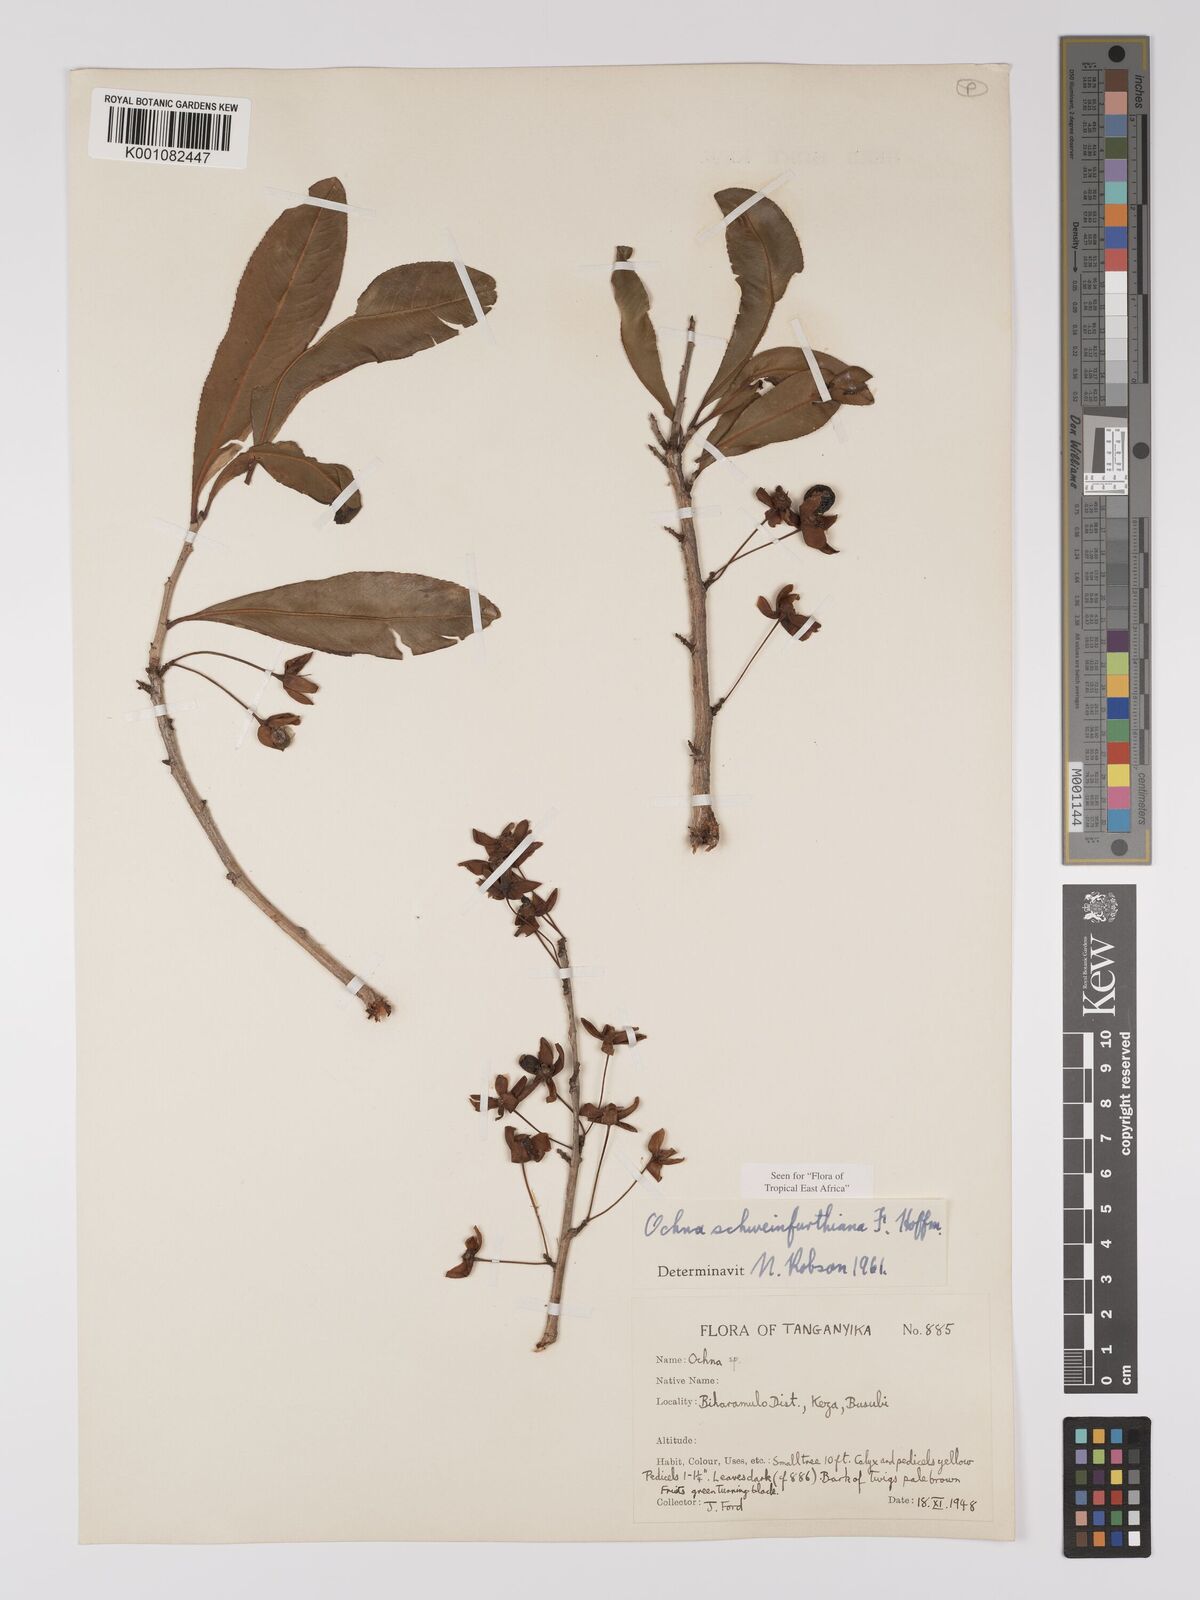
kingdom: Plantae
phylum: Tracheophyta
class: Magnoliopsida
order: Malpighiales
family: Ochnaceae
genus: Ochna
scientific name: Ochna schweinfurthiana
